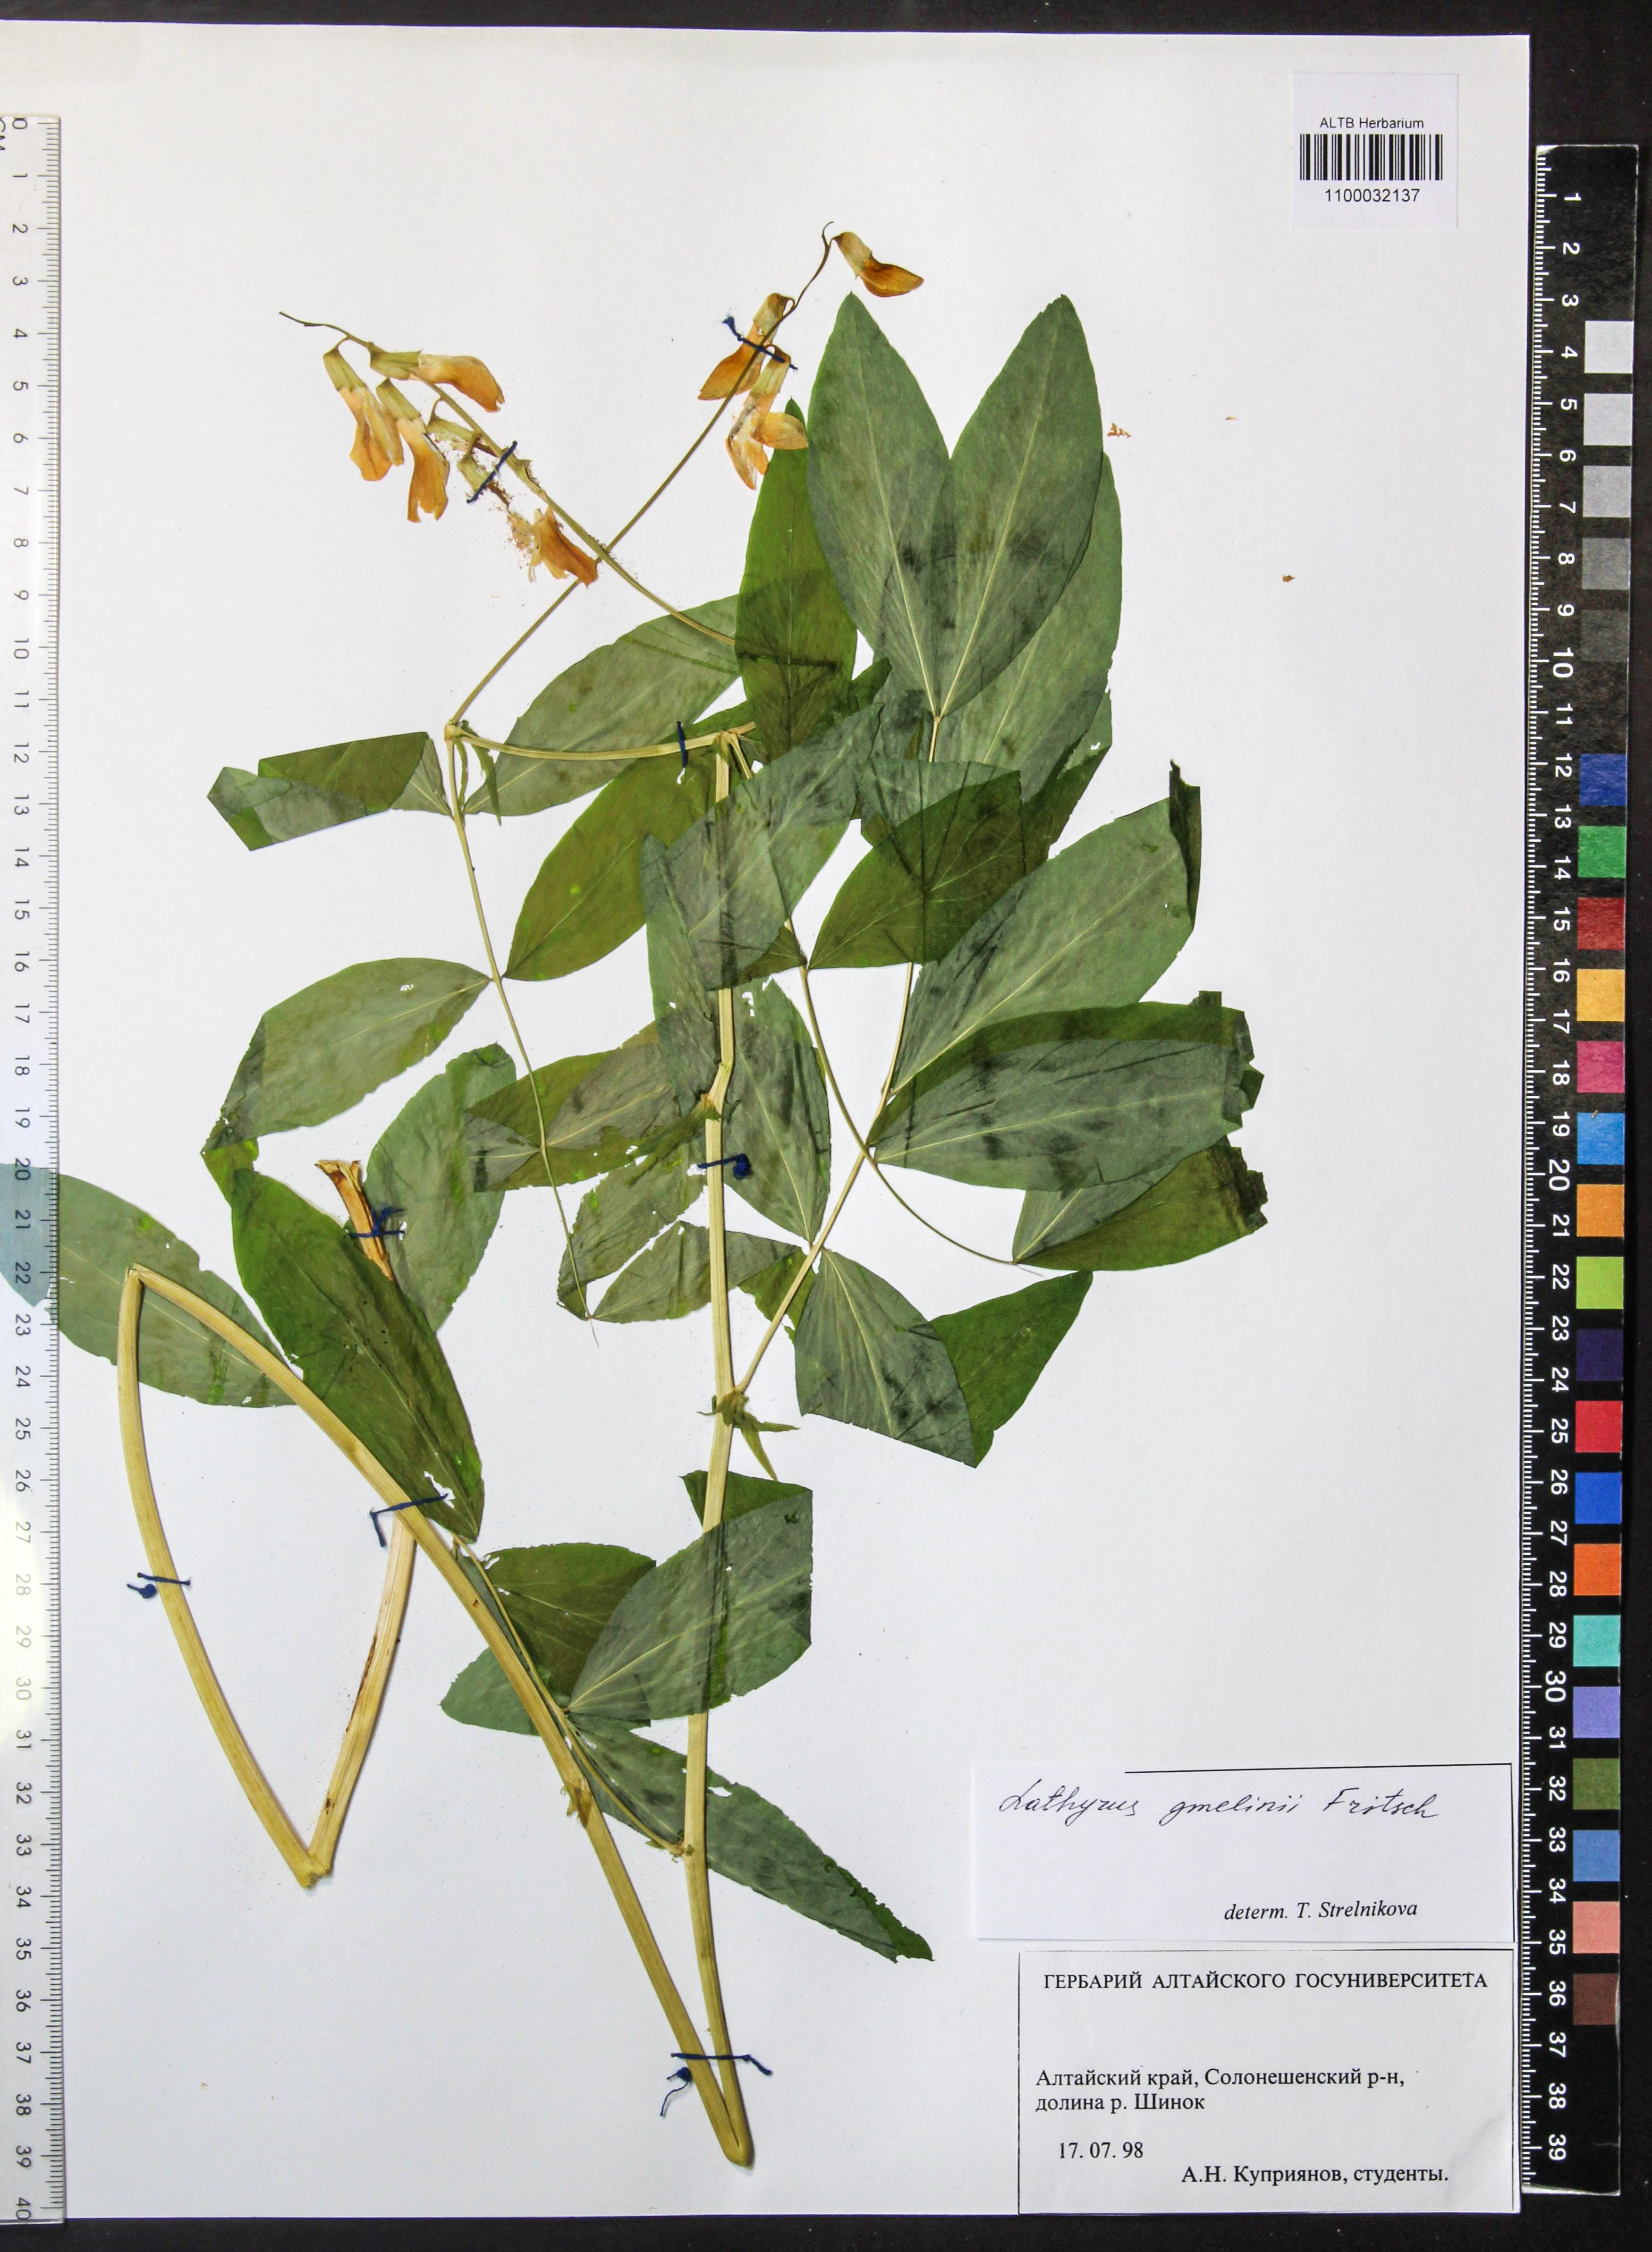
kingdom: Plantae
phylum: Tracheophyta
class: Magnoliopsida
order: Fabales
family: Fabaceae
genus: Lathyrus
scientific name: Lathyrus gmelinii
